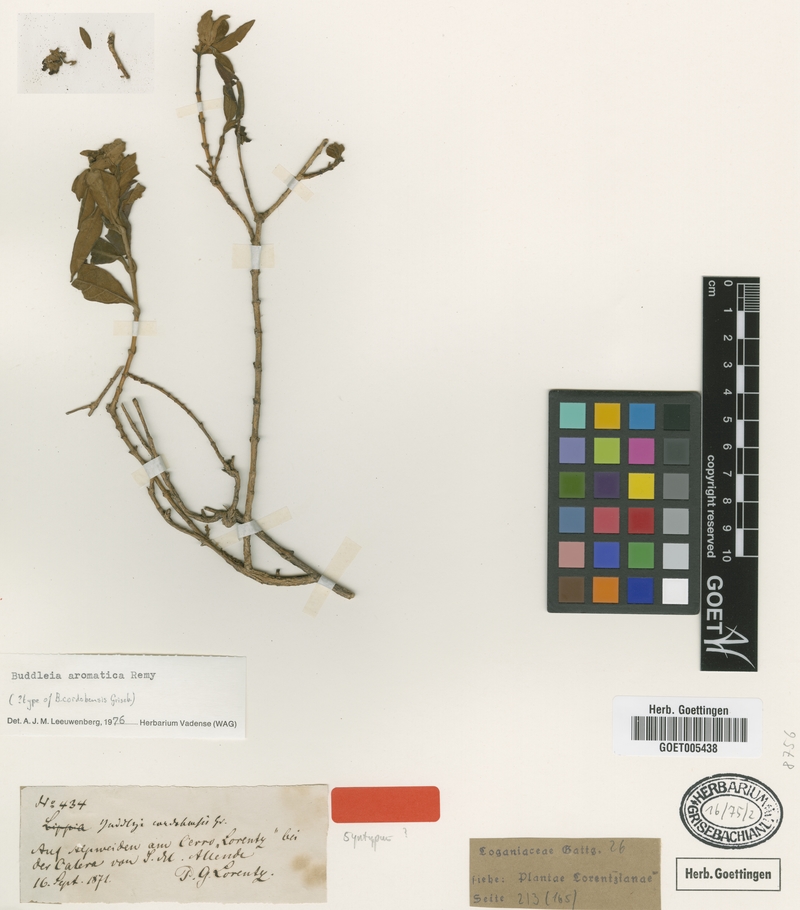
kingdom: Plantae
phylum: Tracheophyta
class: Magnoliopsida
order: Lamiales
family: Scrophulariaceae
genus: Buddleja
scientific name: Buddleja cordobensis
